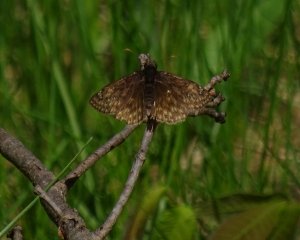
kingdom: Animalia
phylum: Arthropoda
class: Insecta
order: Lepidoptera
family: Hesperiidae
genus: Gesta
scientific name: Gesta
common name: Juvenal's Duskywing
